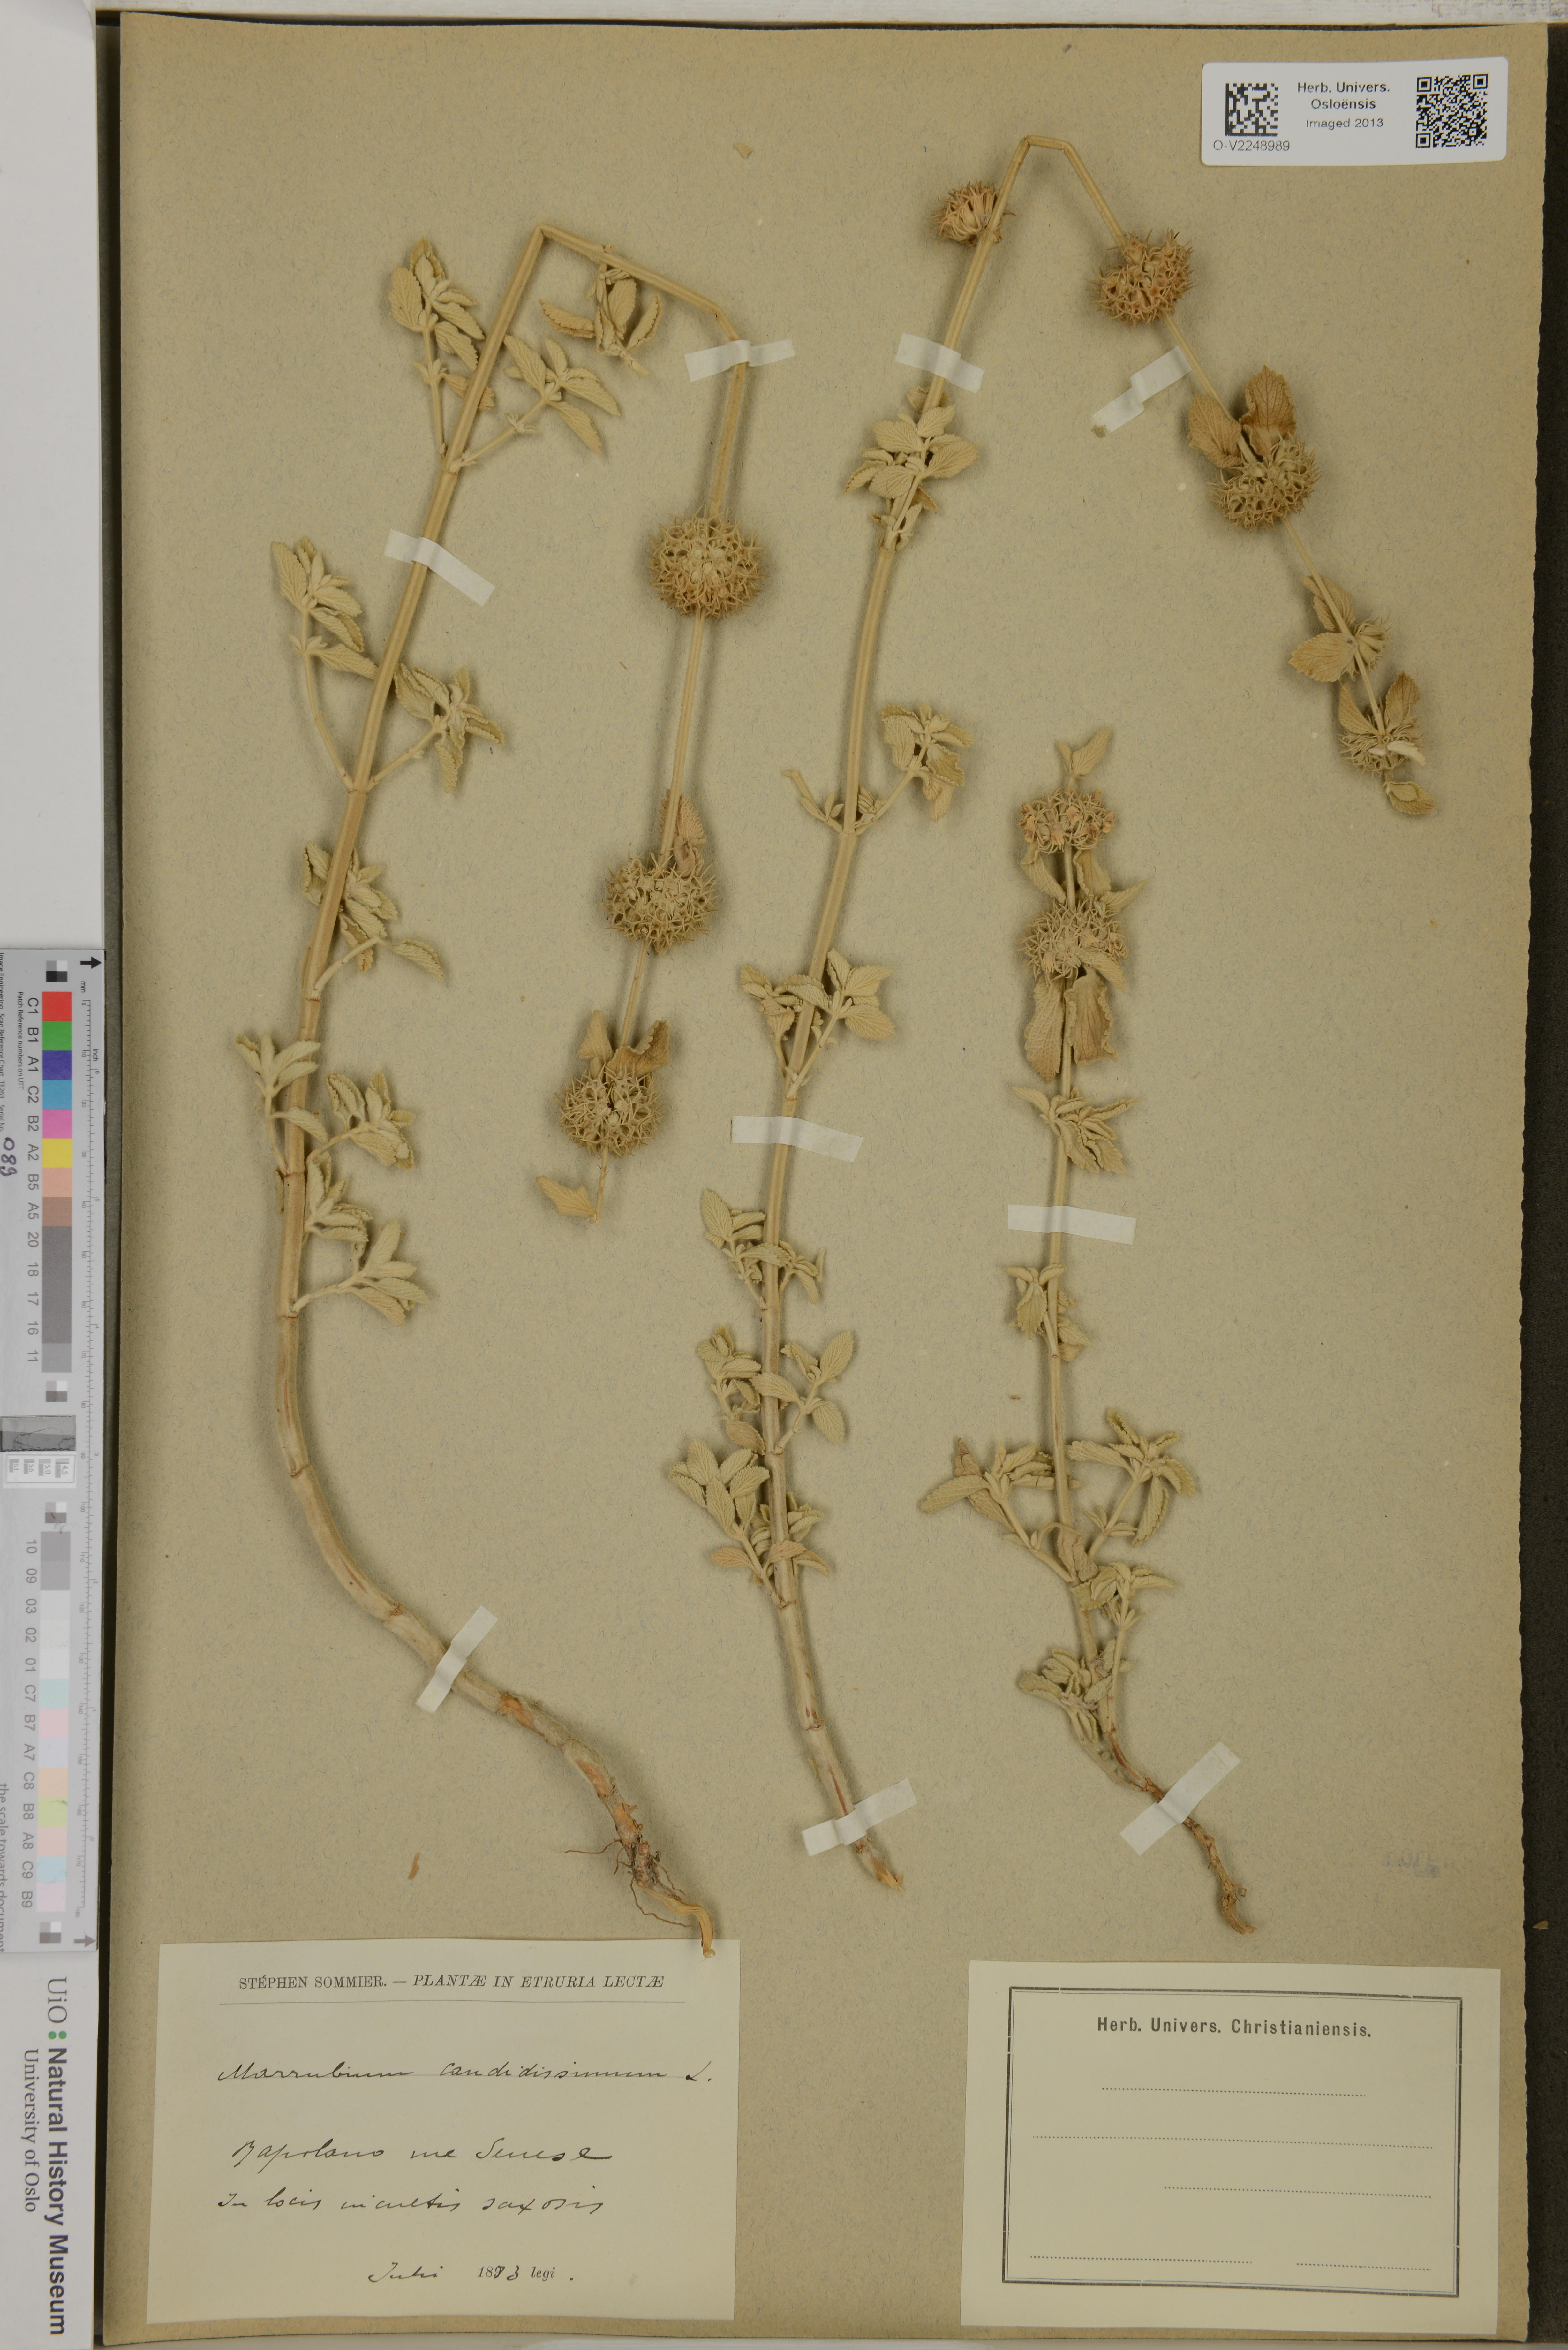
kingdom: Plantae
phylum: Tracheophyta
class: Magnoliopsida
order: Lamiales
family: Lamiaceae
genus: Marrubium
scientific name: Marrubium candidissimum
